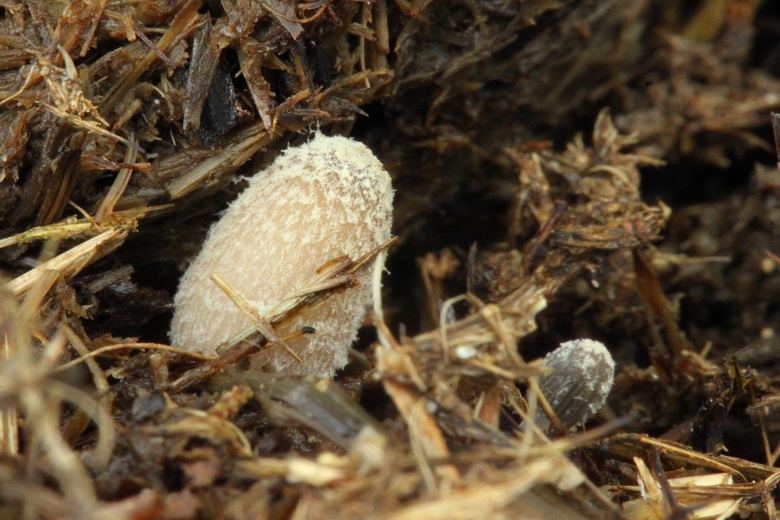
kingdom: Fungi
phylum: Basidiomycota
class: Agaricomycetes
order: Agaricales
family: Psathyrellaceae
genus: Coprinopsis
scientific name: Coprinopsis luteocephala
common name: gullig blækhat
